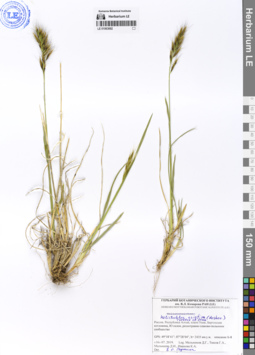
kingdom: Plantae
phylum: Tracheophyta
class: Liliopsida
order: Poales
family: Poaceae
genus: Helictochloa
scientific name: Helictochloa hookeri
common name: Hooker's alpine oatgrass
